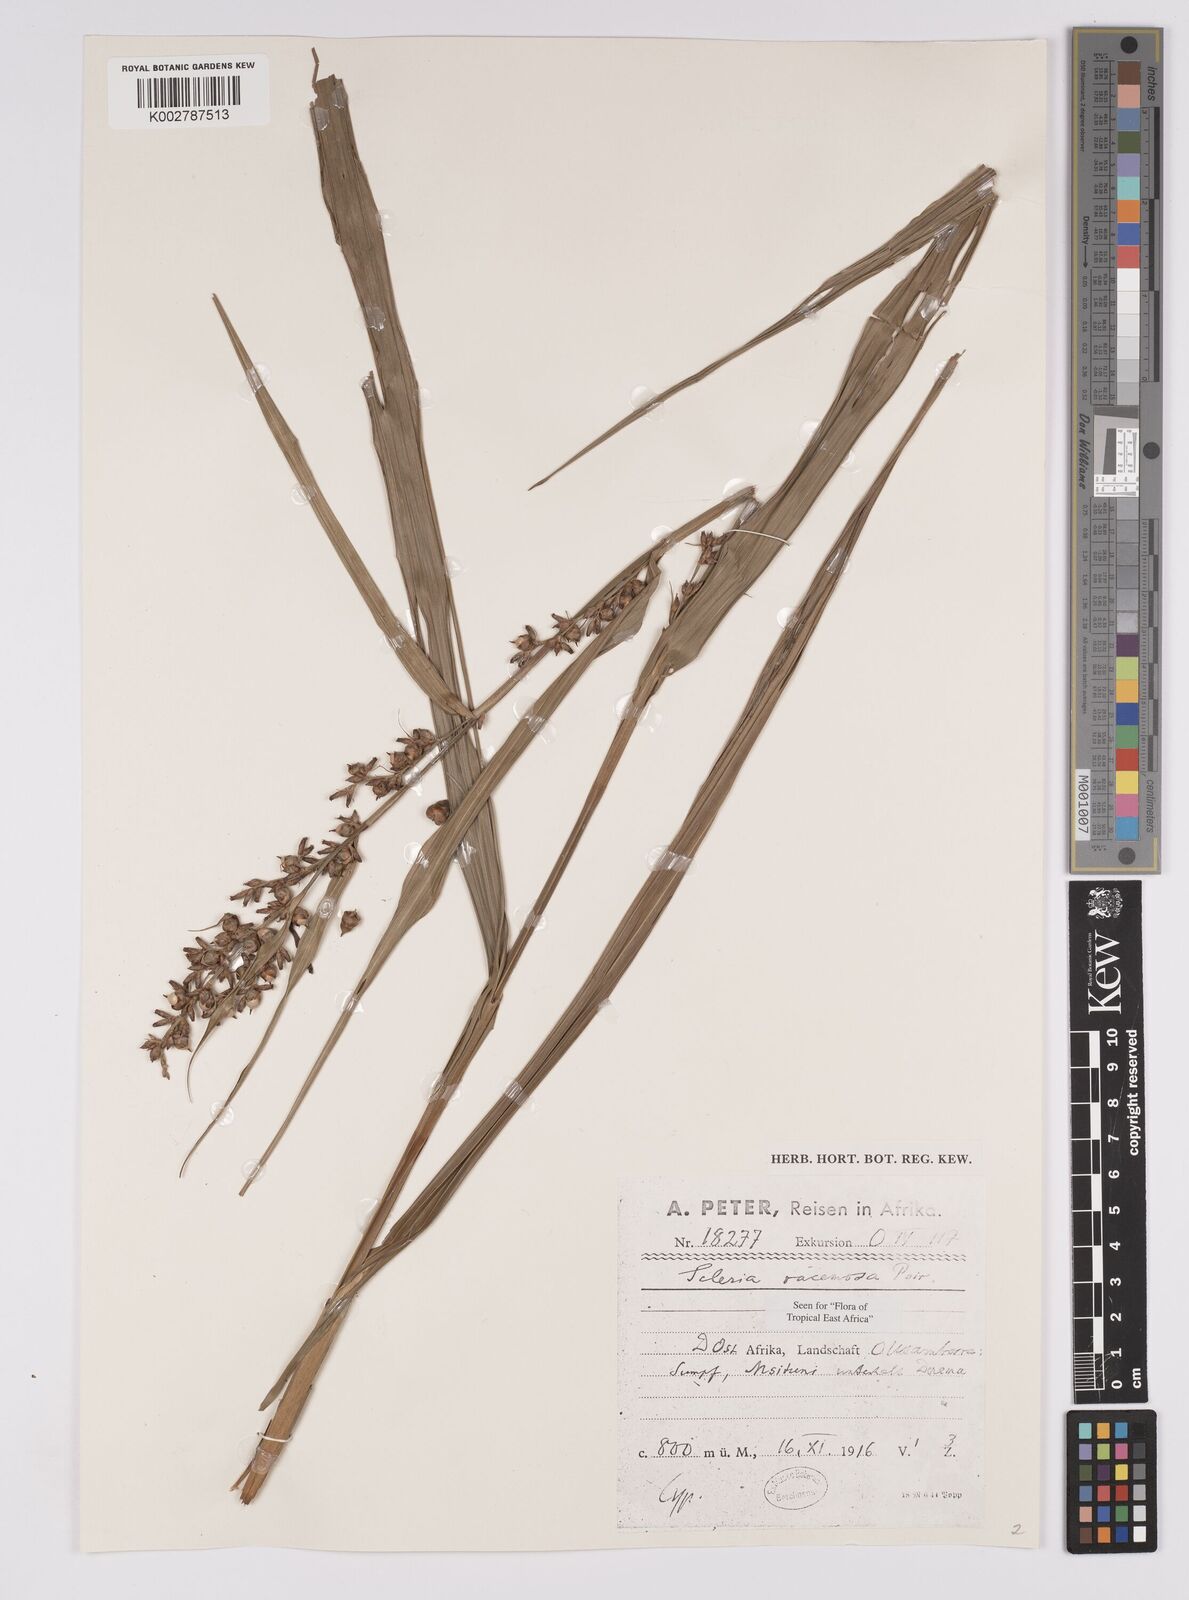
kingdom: Plantae
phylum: Tracheophyta
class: Liliopsida
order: Poales
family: Cyperaceae
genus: Scleria
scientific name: Scleria racemosa
